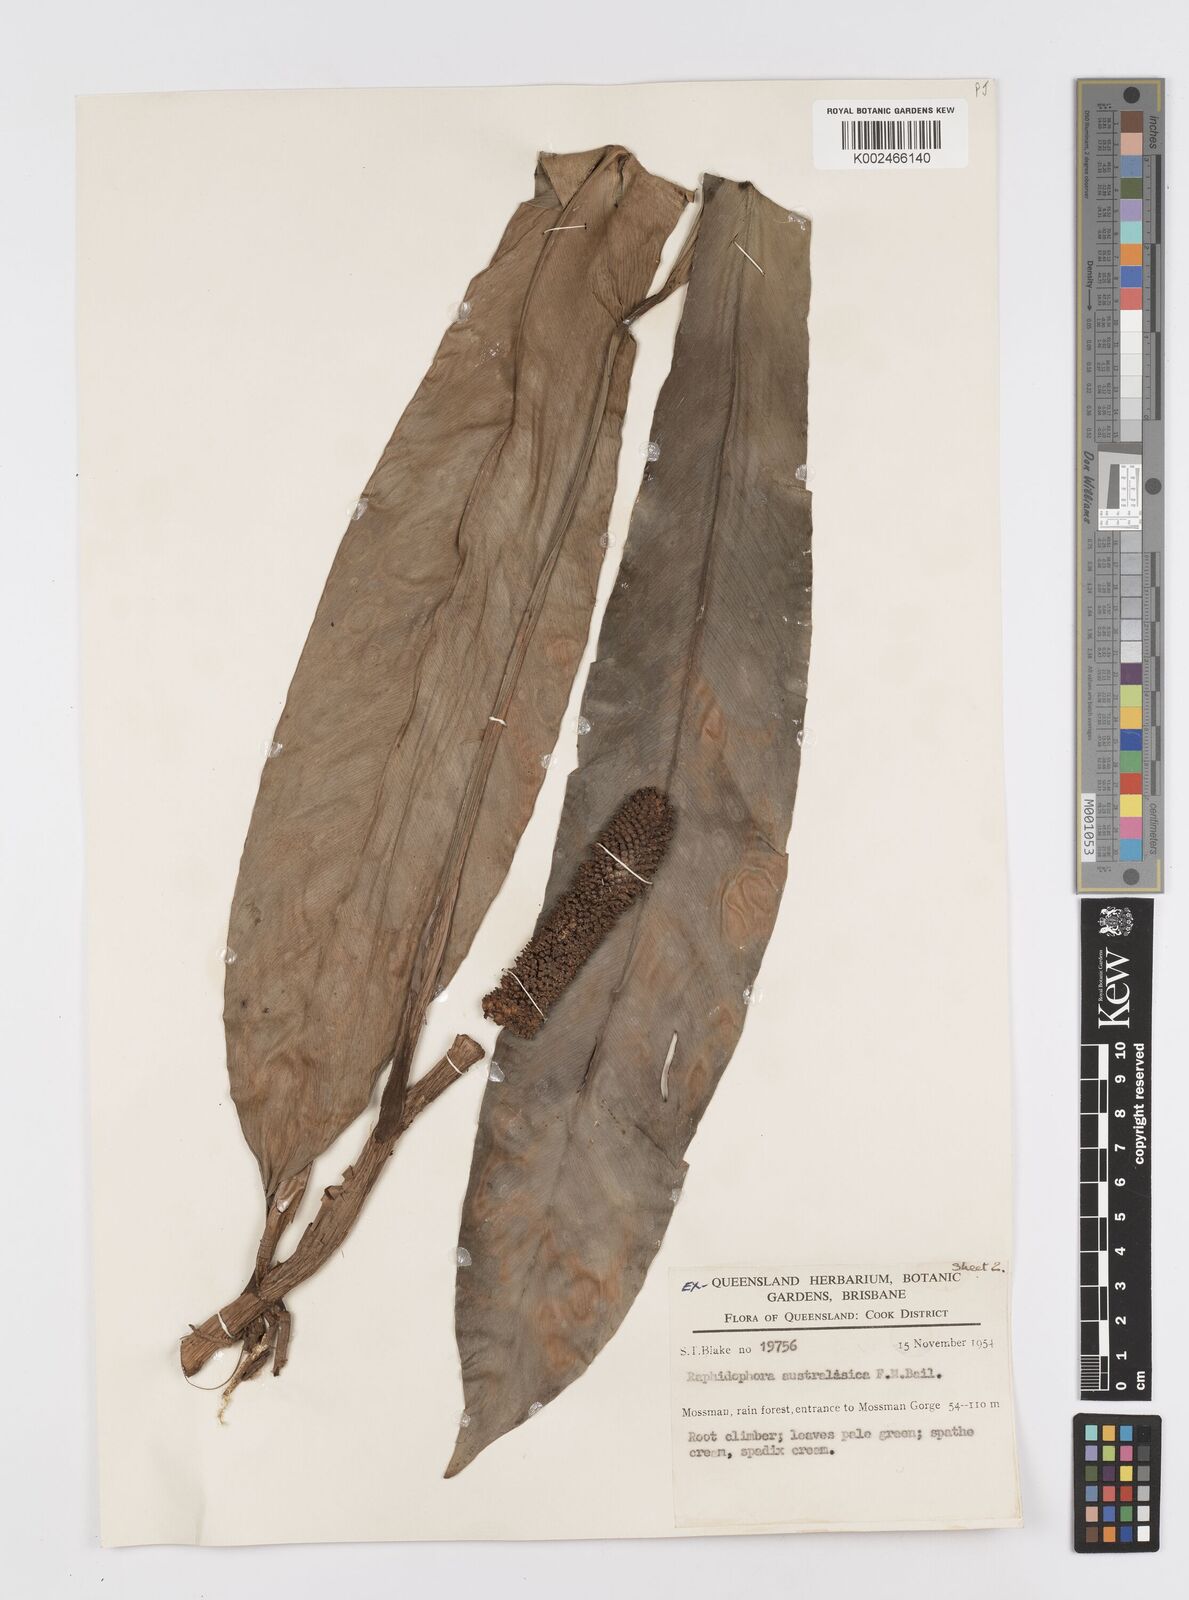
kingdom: Plantae
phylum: Tracheophyta
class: Liliopsida
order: Alismatales
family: Araceae
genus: Rhaphidophora
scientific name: Rhaphidophora australasica
